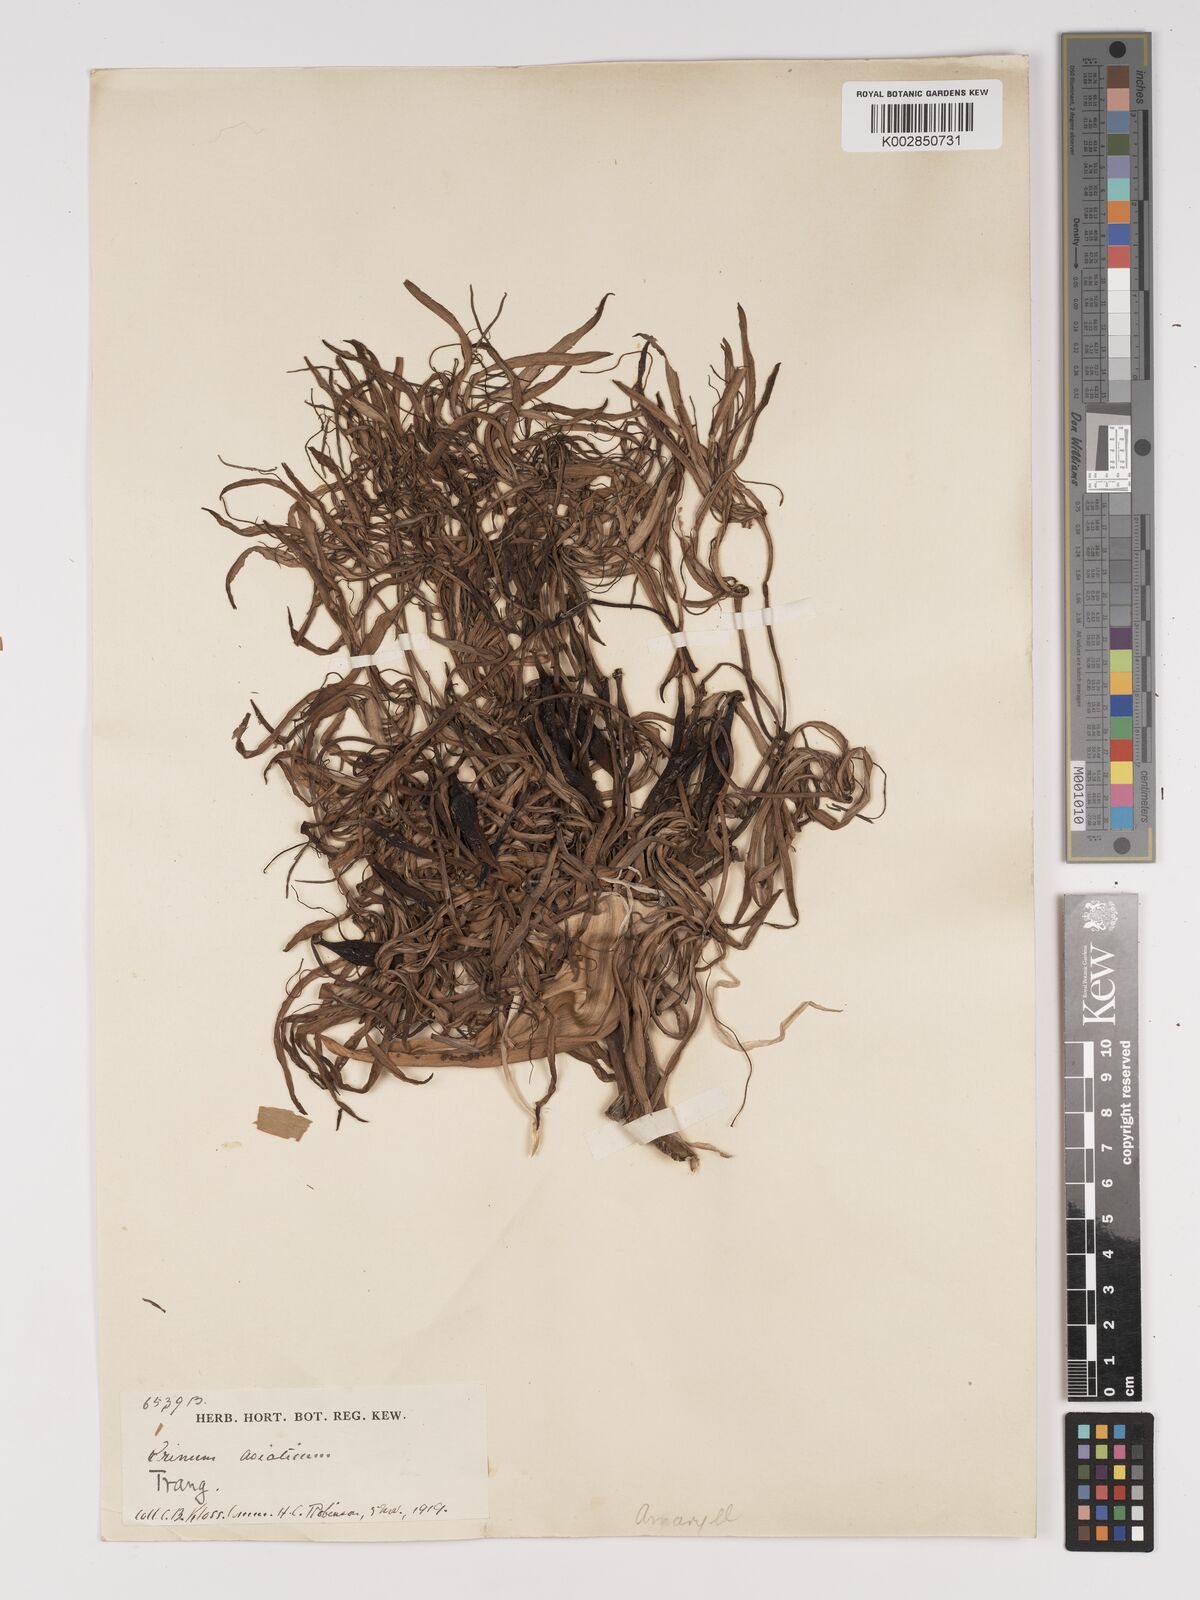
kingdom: Plantae
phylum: Tracheophyta
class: Liliopsida
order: Asparagales
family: Amaryllidaceae
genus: Crinum
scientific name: Crinum asiaticum
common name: Poisonbulb
